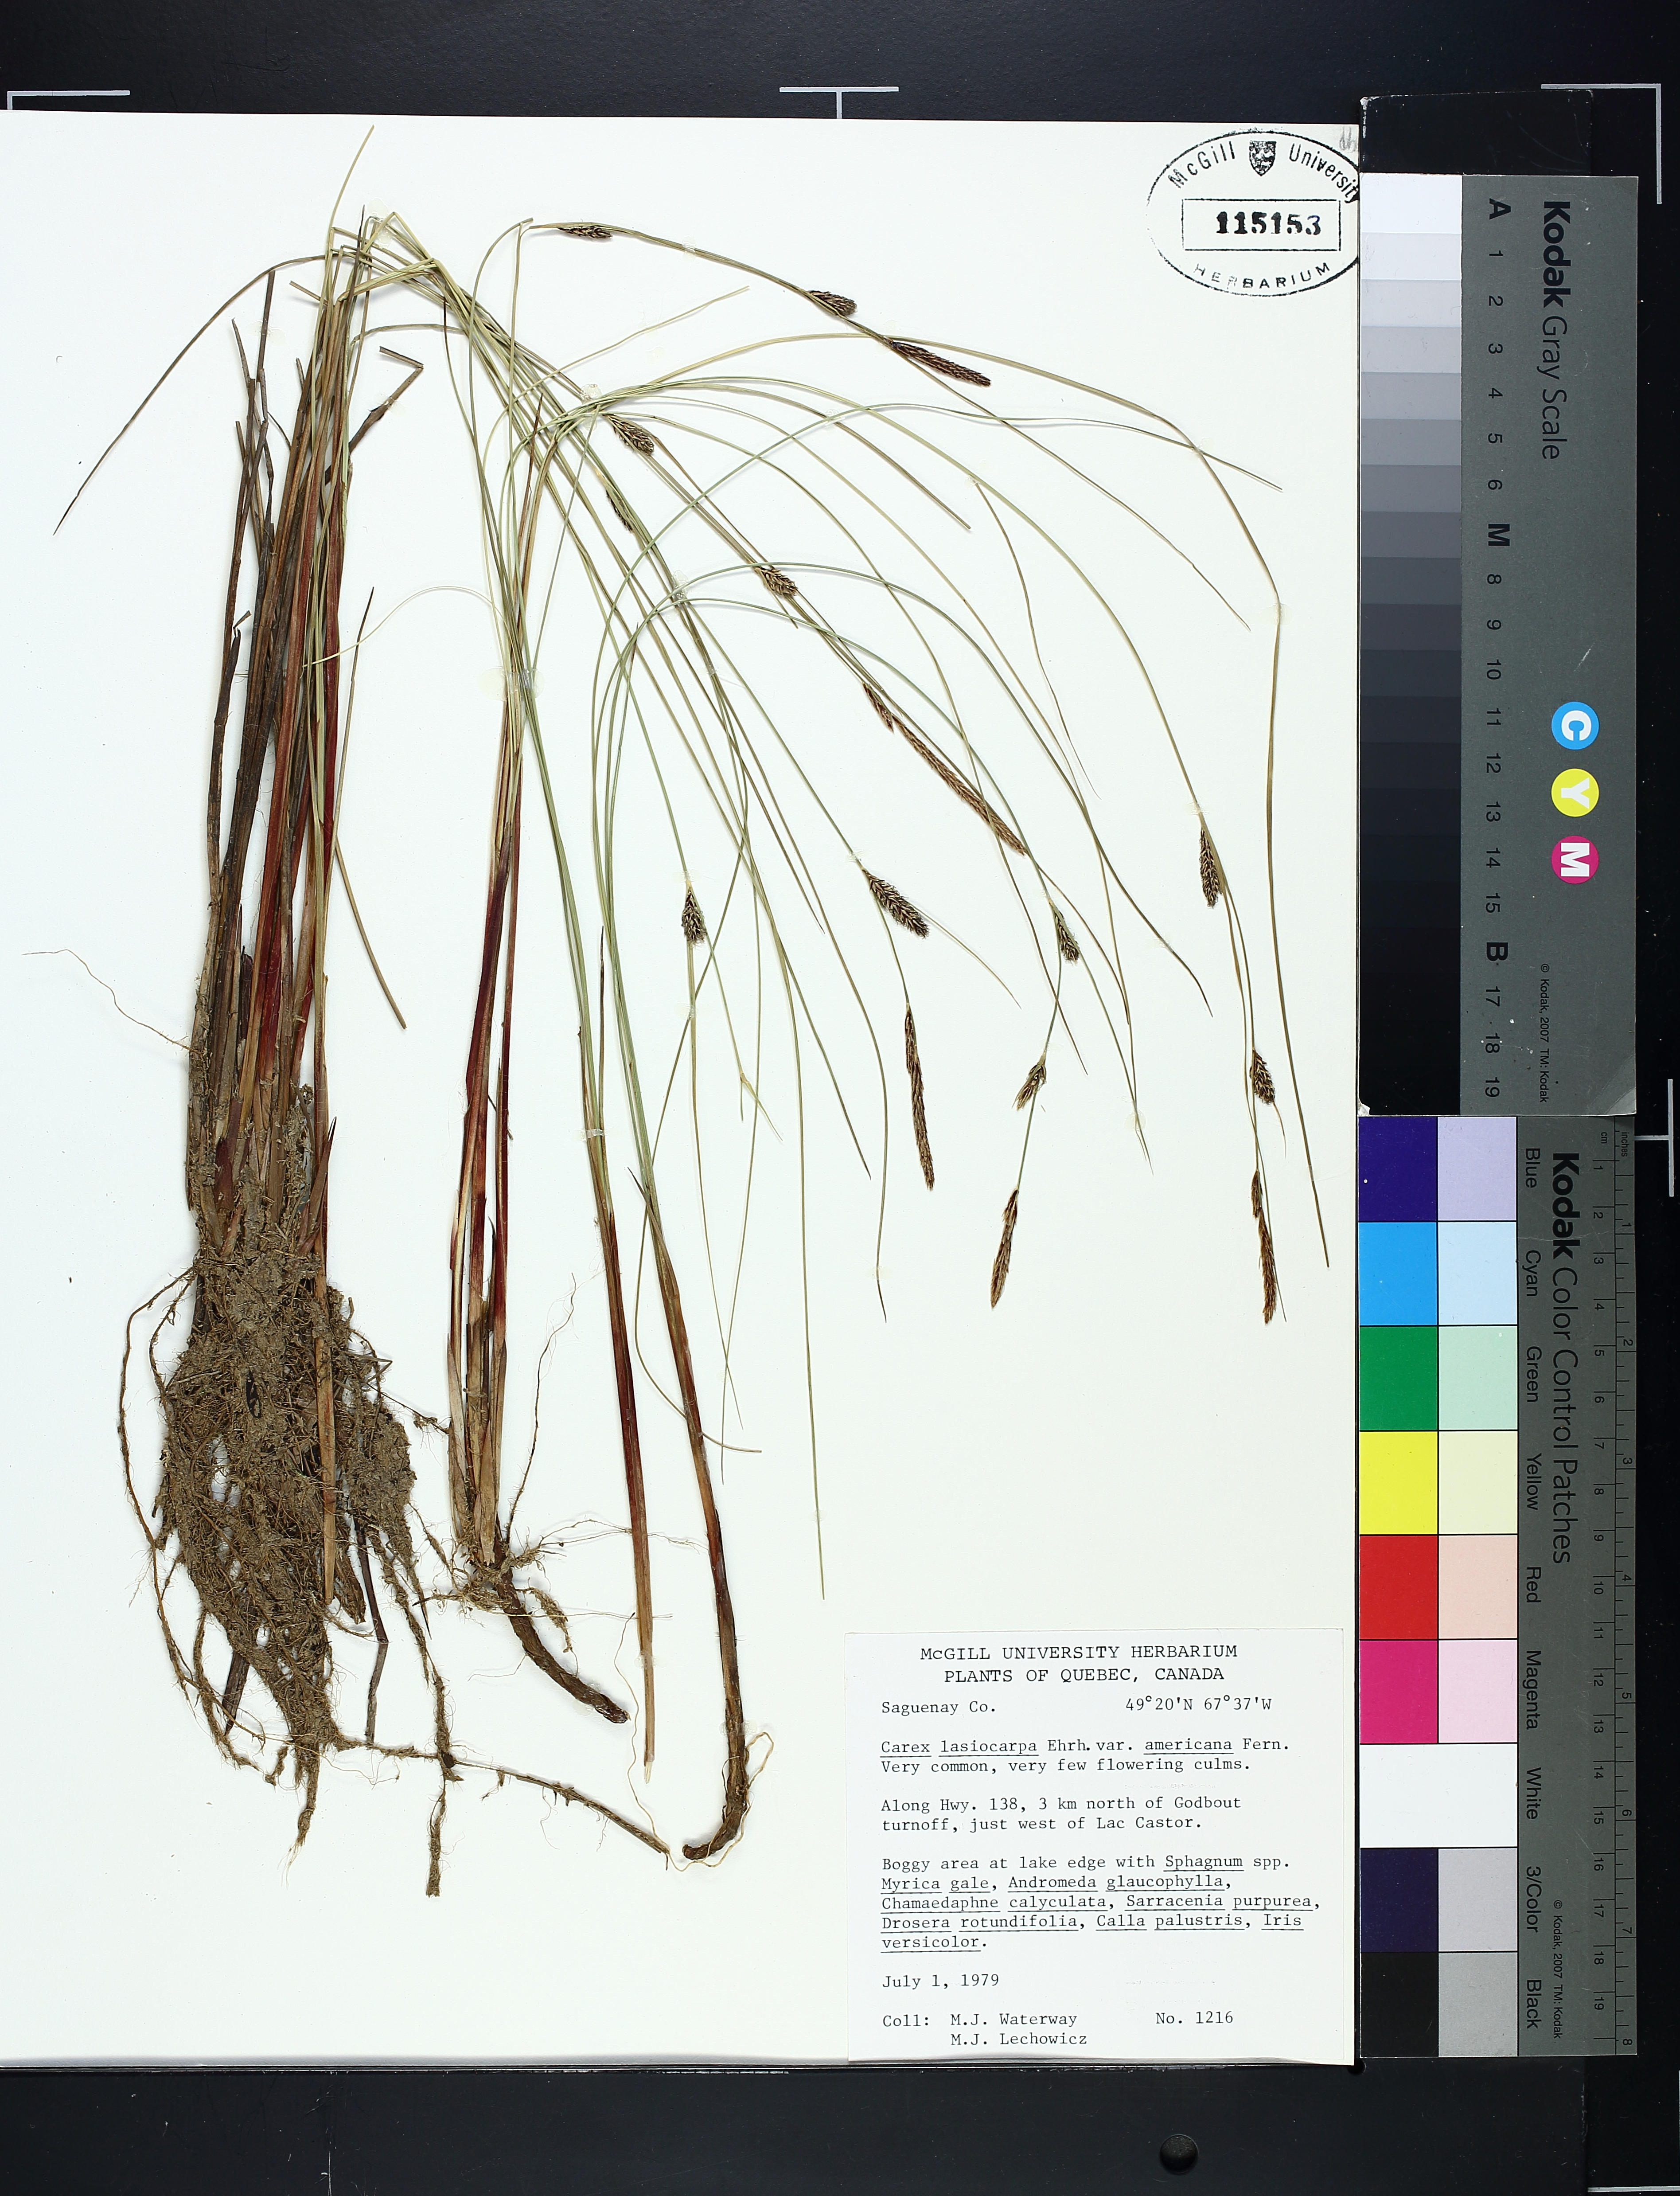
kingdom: Plantae
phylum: Tracheophyta
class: Liliopsida
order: Poales
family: Cyperaceae
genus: Carex
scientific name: Carex lasiocarpa
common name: Slender sedge
